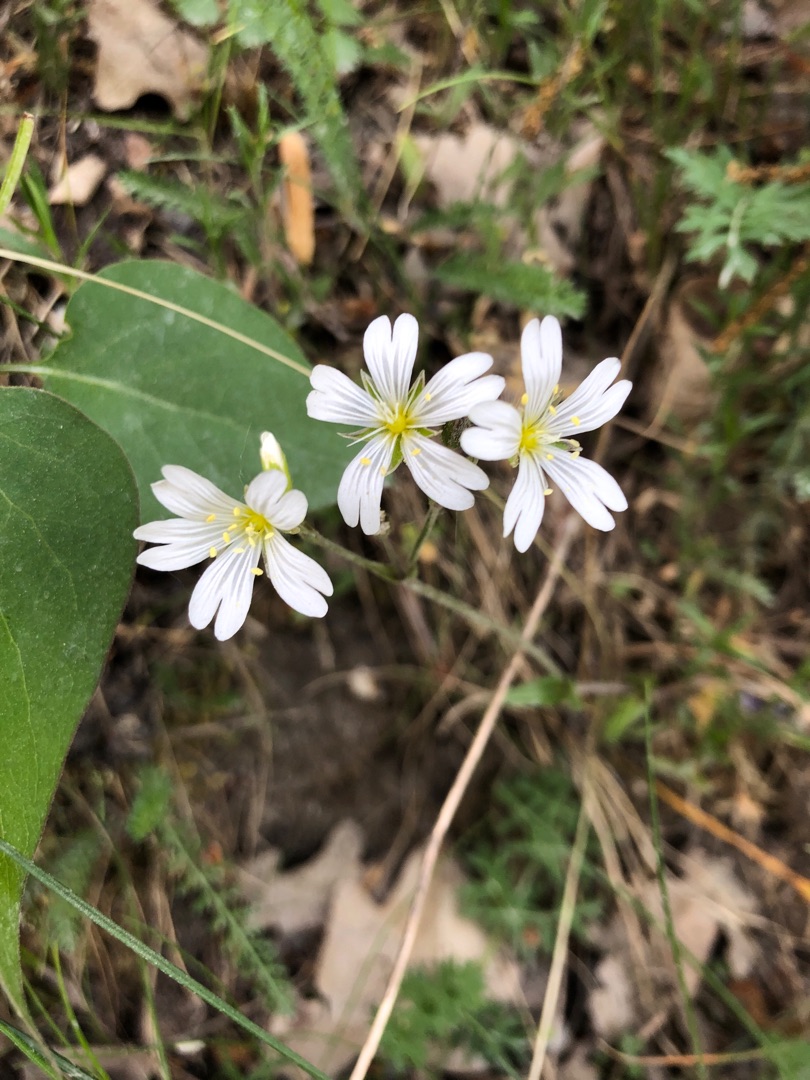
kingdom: Plantae
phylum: Tracheophyta
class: Magnoliopsida
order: Caryophyllales
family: Caryophyllaceae
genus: Cerastium
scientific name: Cerastium arvense
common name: Storblomstret hønsetarm
